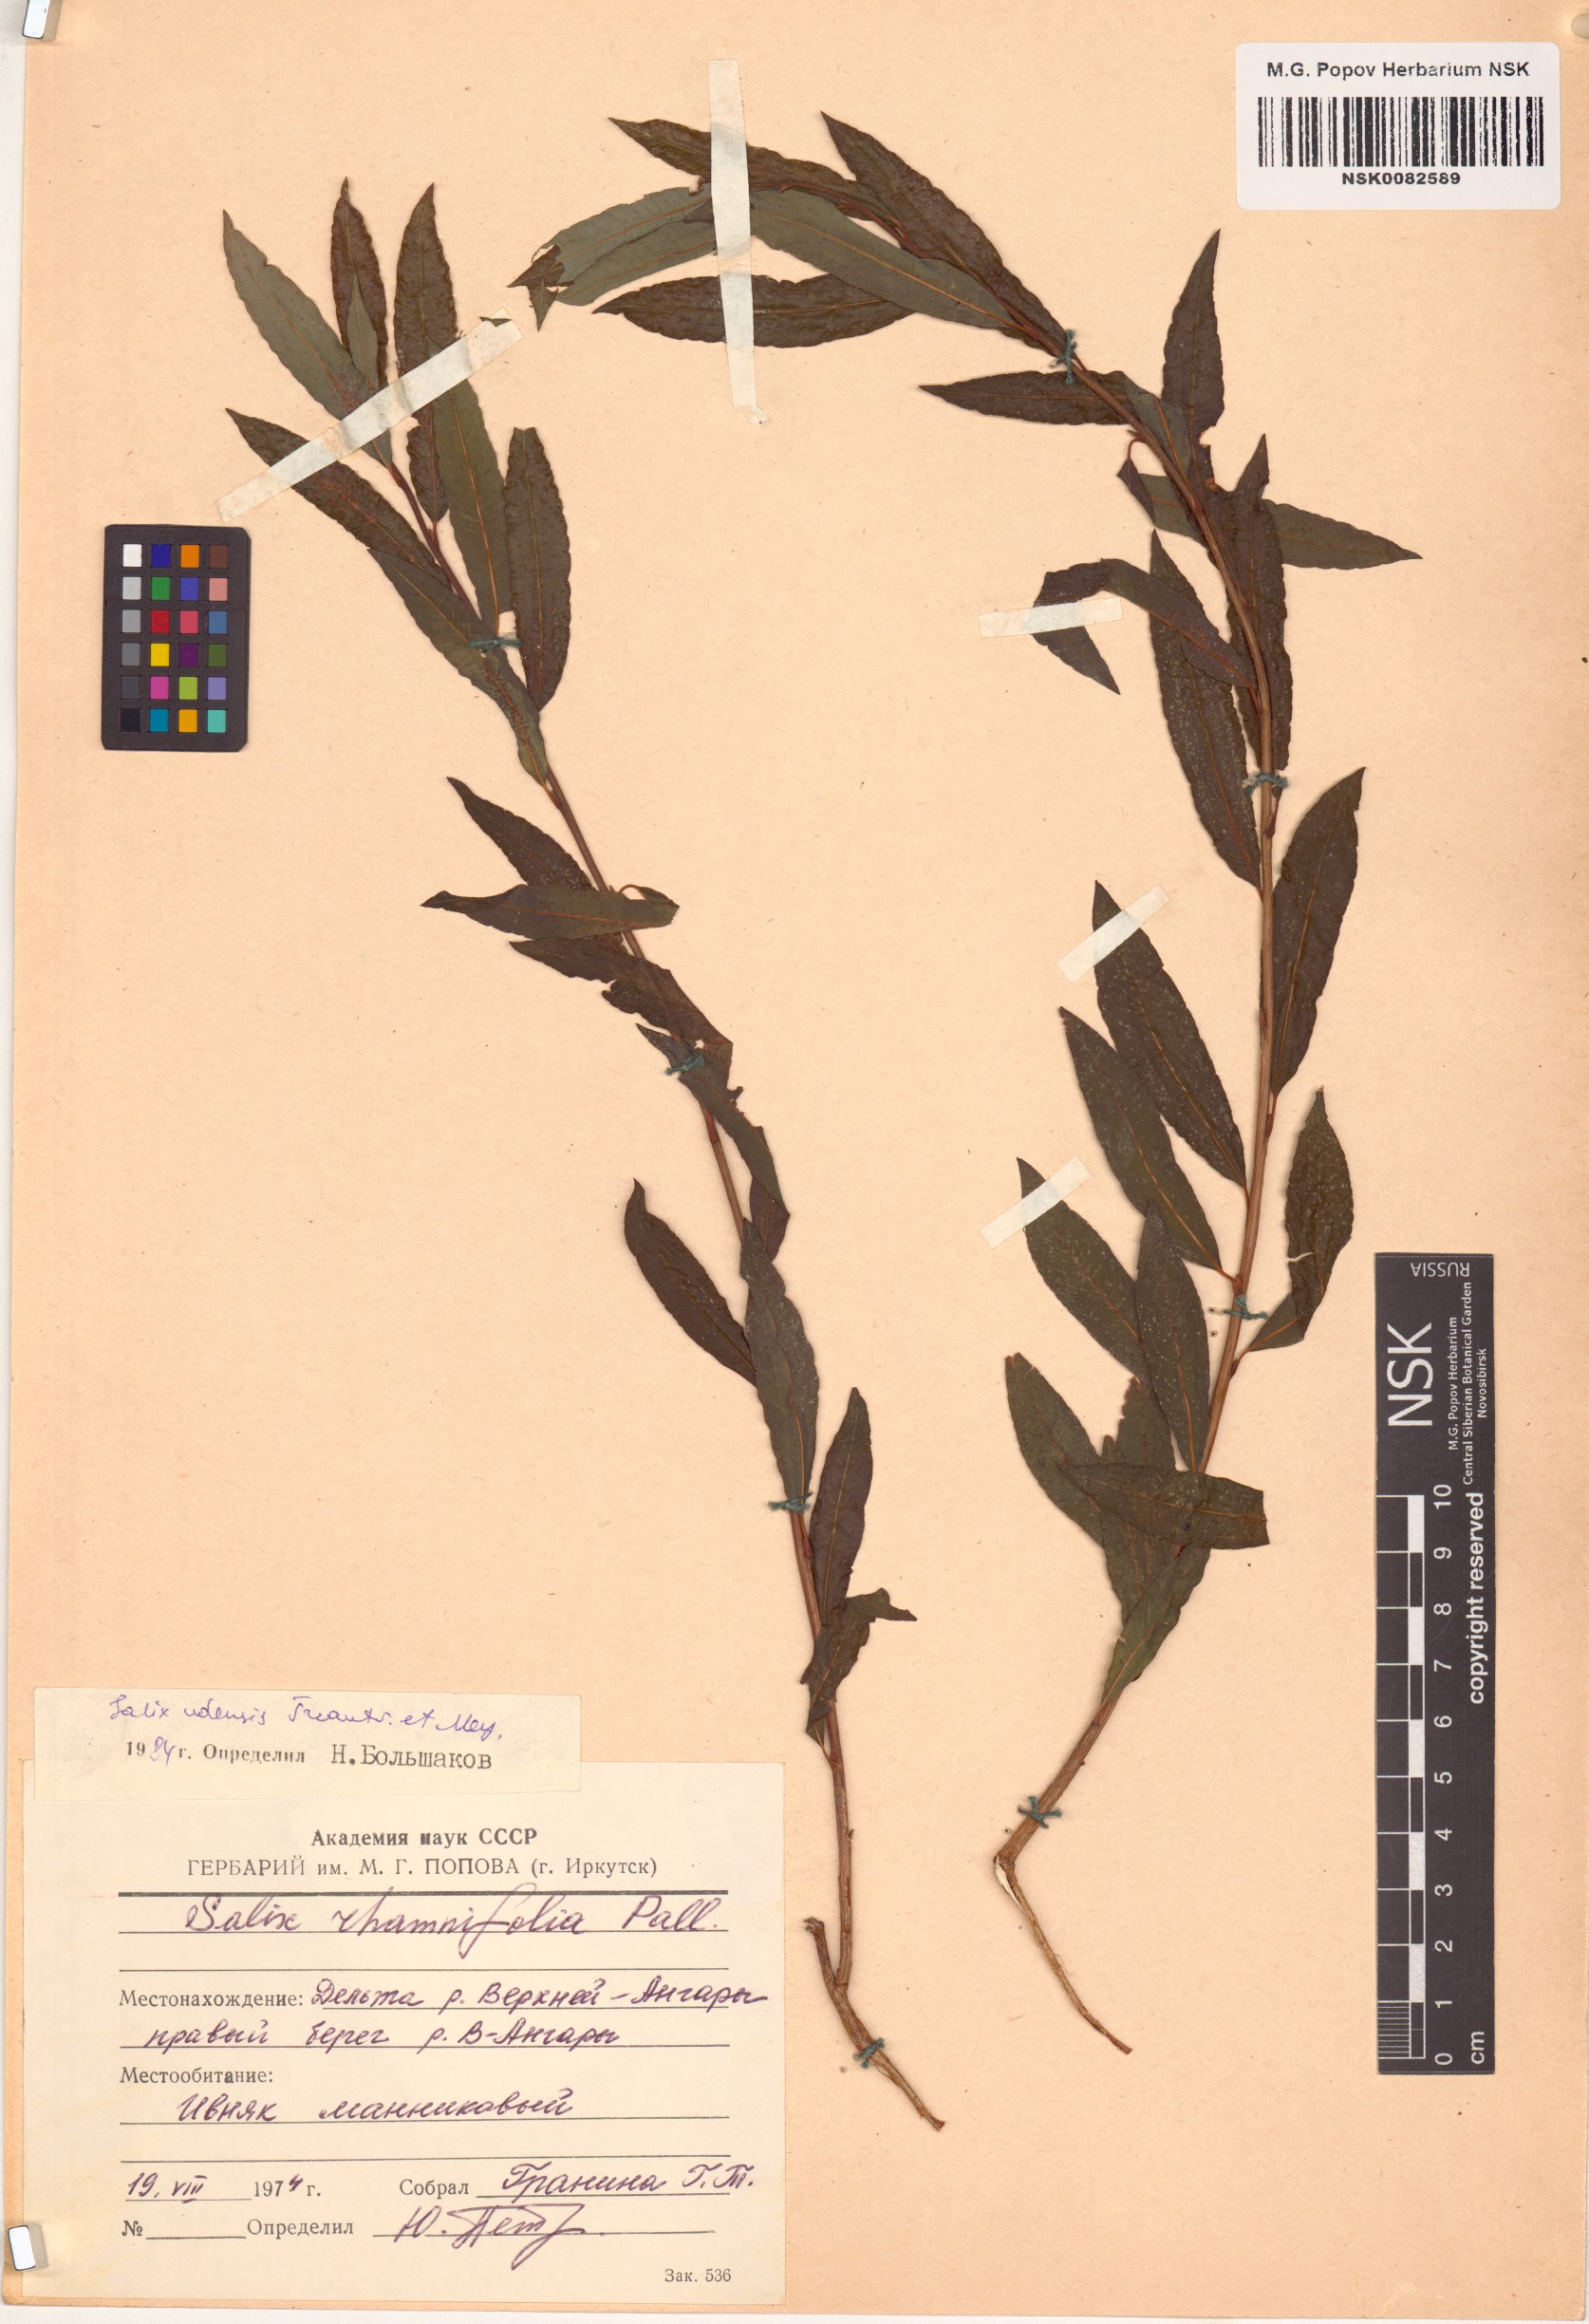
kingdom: Plantae
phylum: Tracheophyta
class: Magnoliopsida
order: Malpighiales
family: Salicaceae
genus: Salix
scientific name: Salix udensis
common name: Sachalin willow
